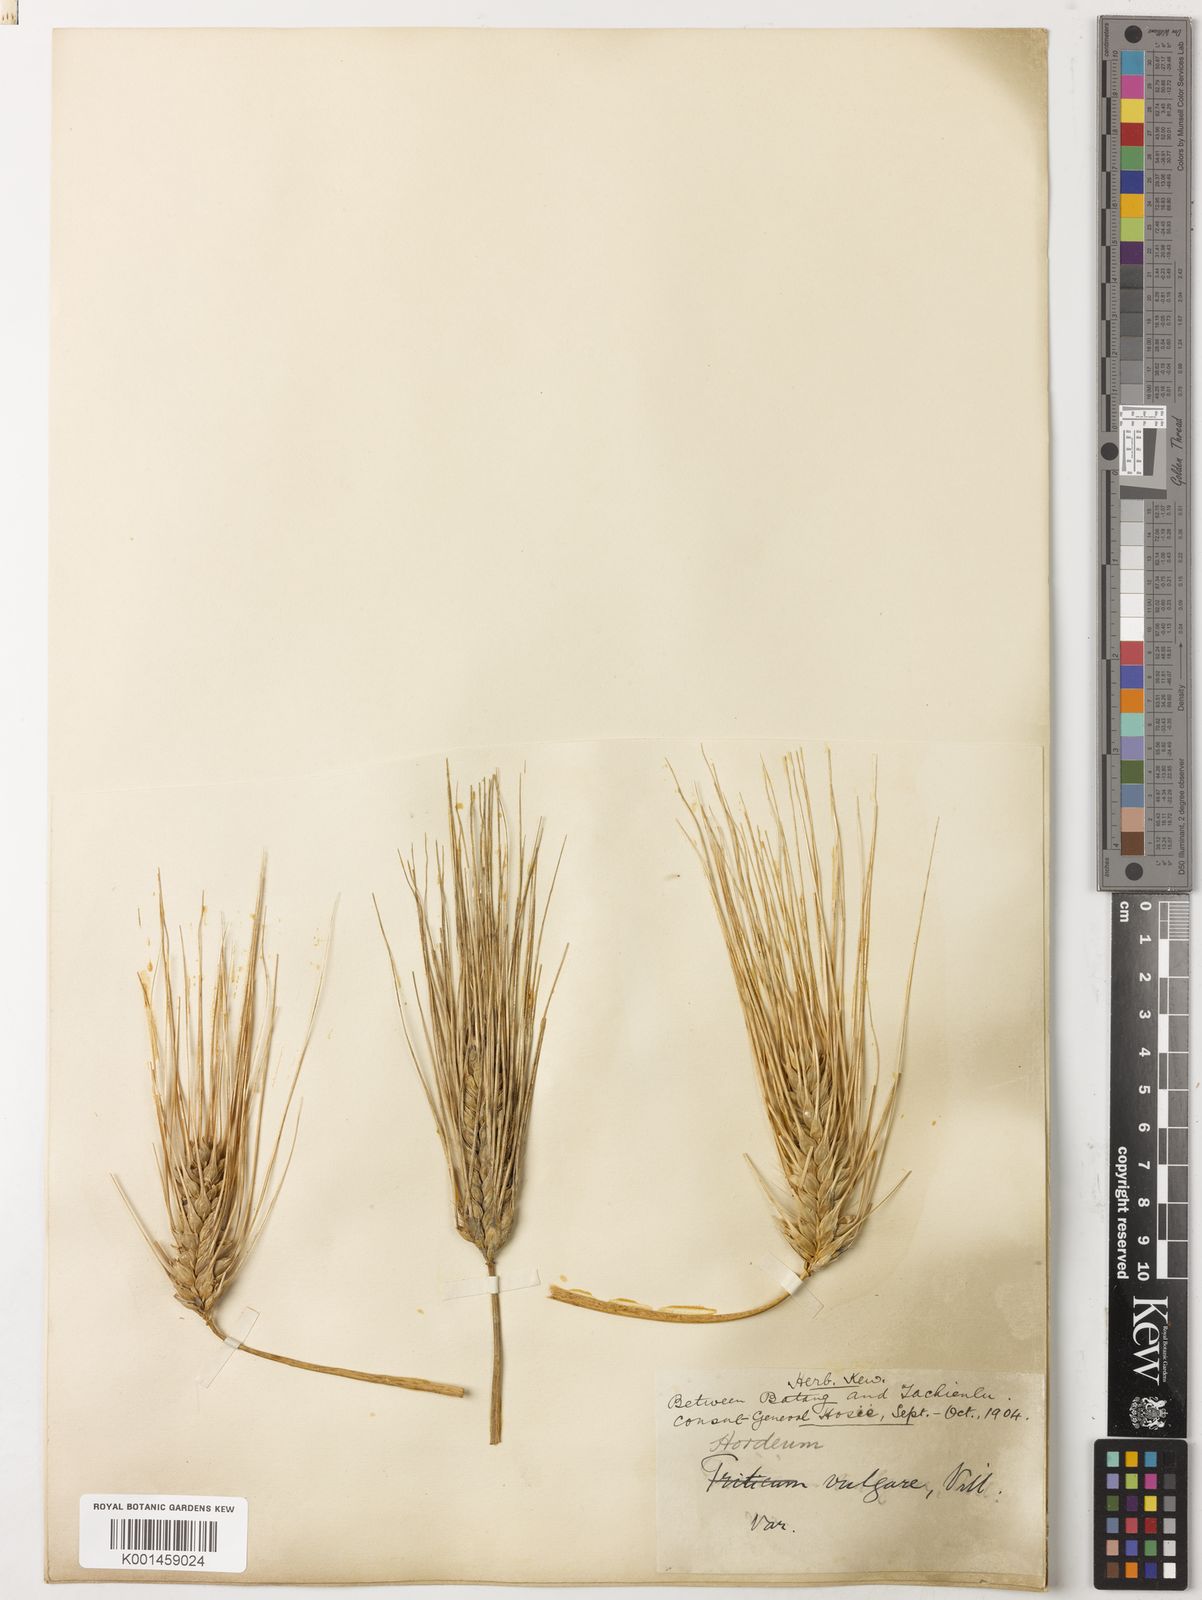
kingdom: Plantae
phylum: Tracheophyta
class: Liliopsida
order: Poales
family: Poaceae
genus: Hordeum
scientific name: Hordeum vulgare
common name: Common barley
